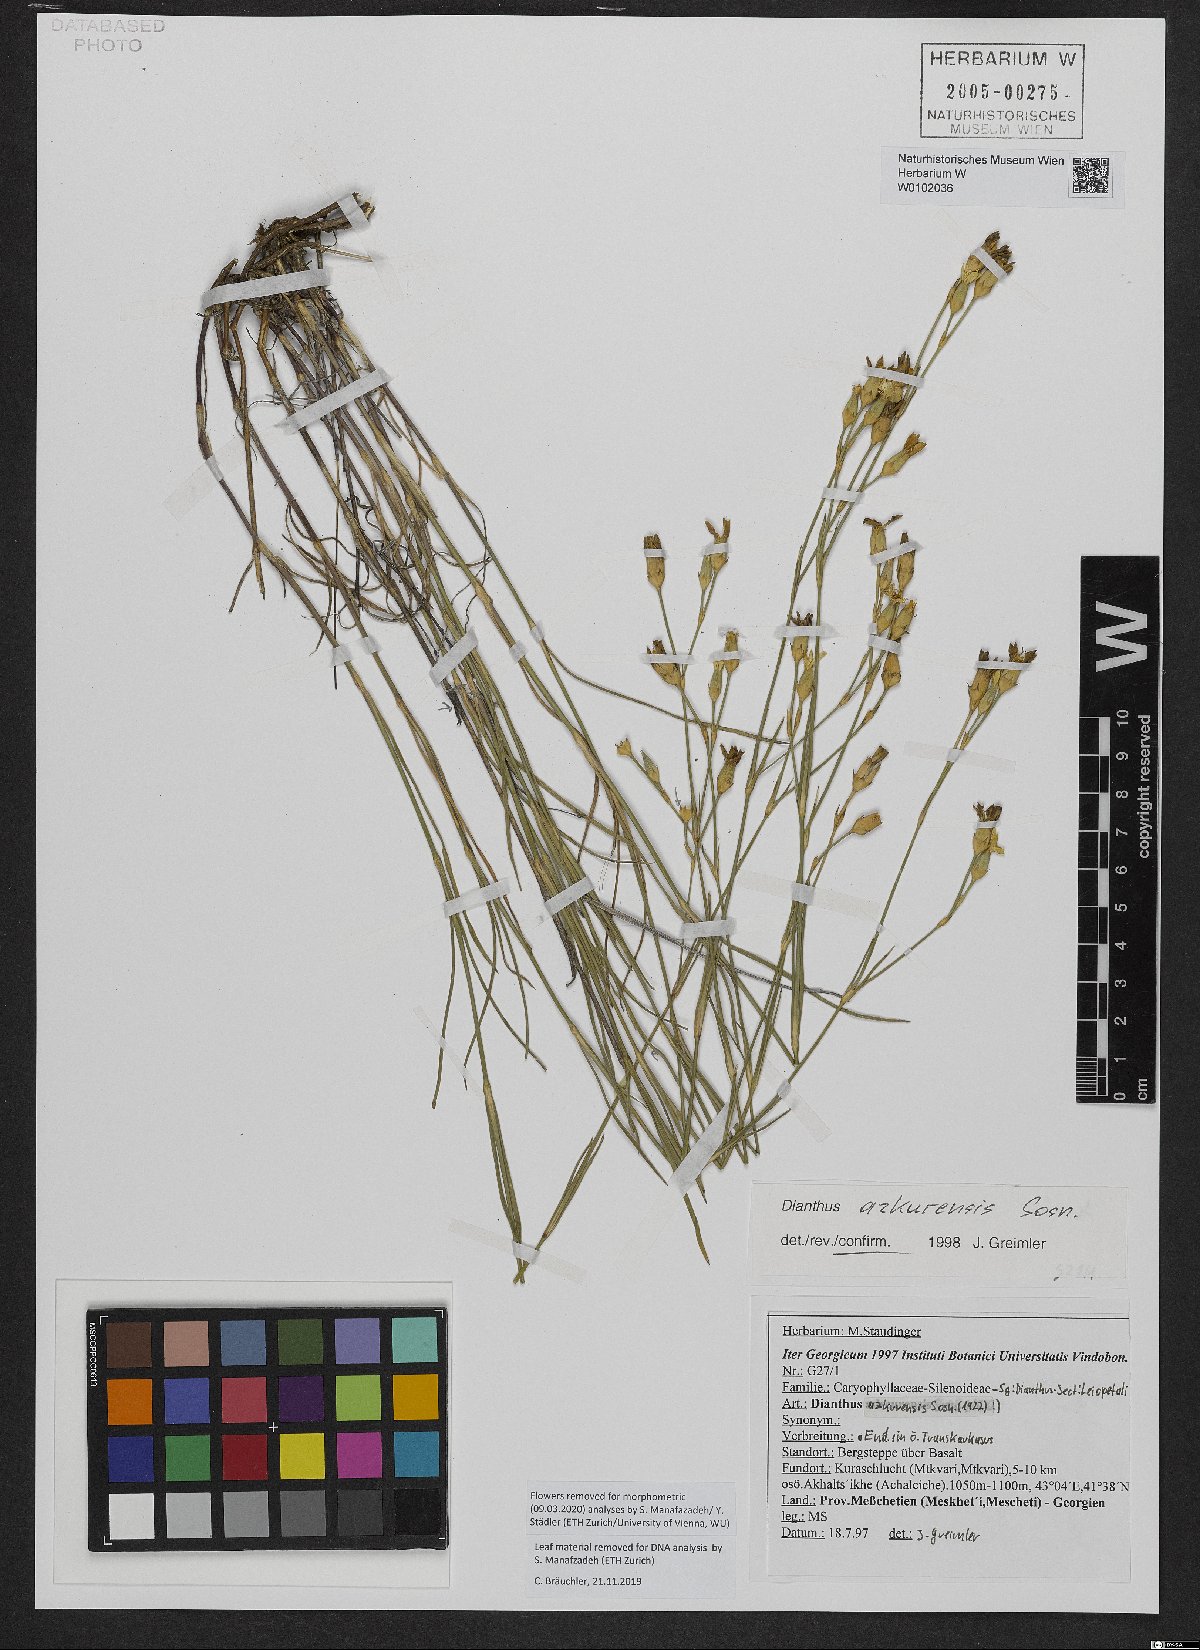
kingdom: Plantae
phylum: Tracheophyta
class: Magnoliopsida
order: Caryophyllales
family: Caryophyllaceae
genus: Dianthus
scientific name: Dianthus azkurensis
